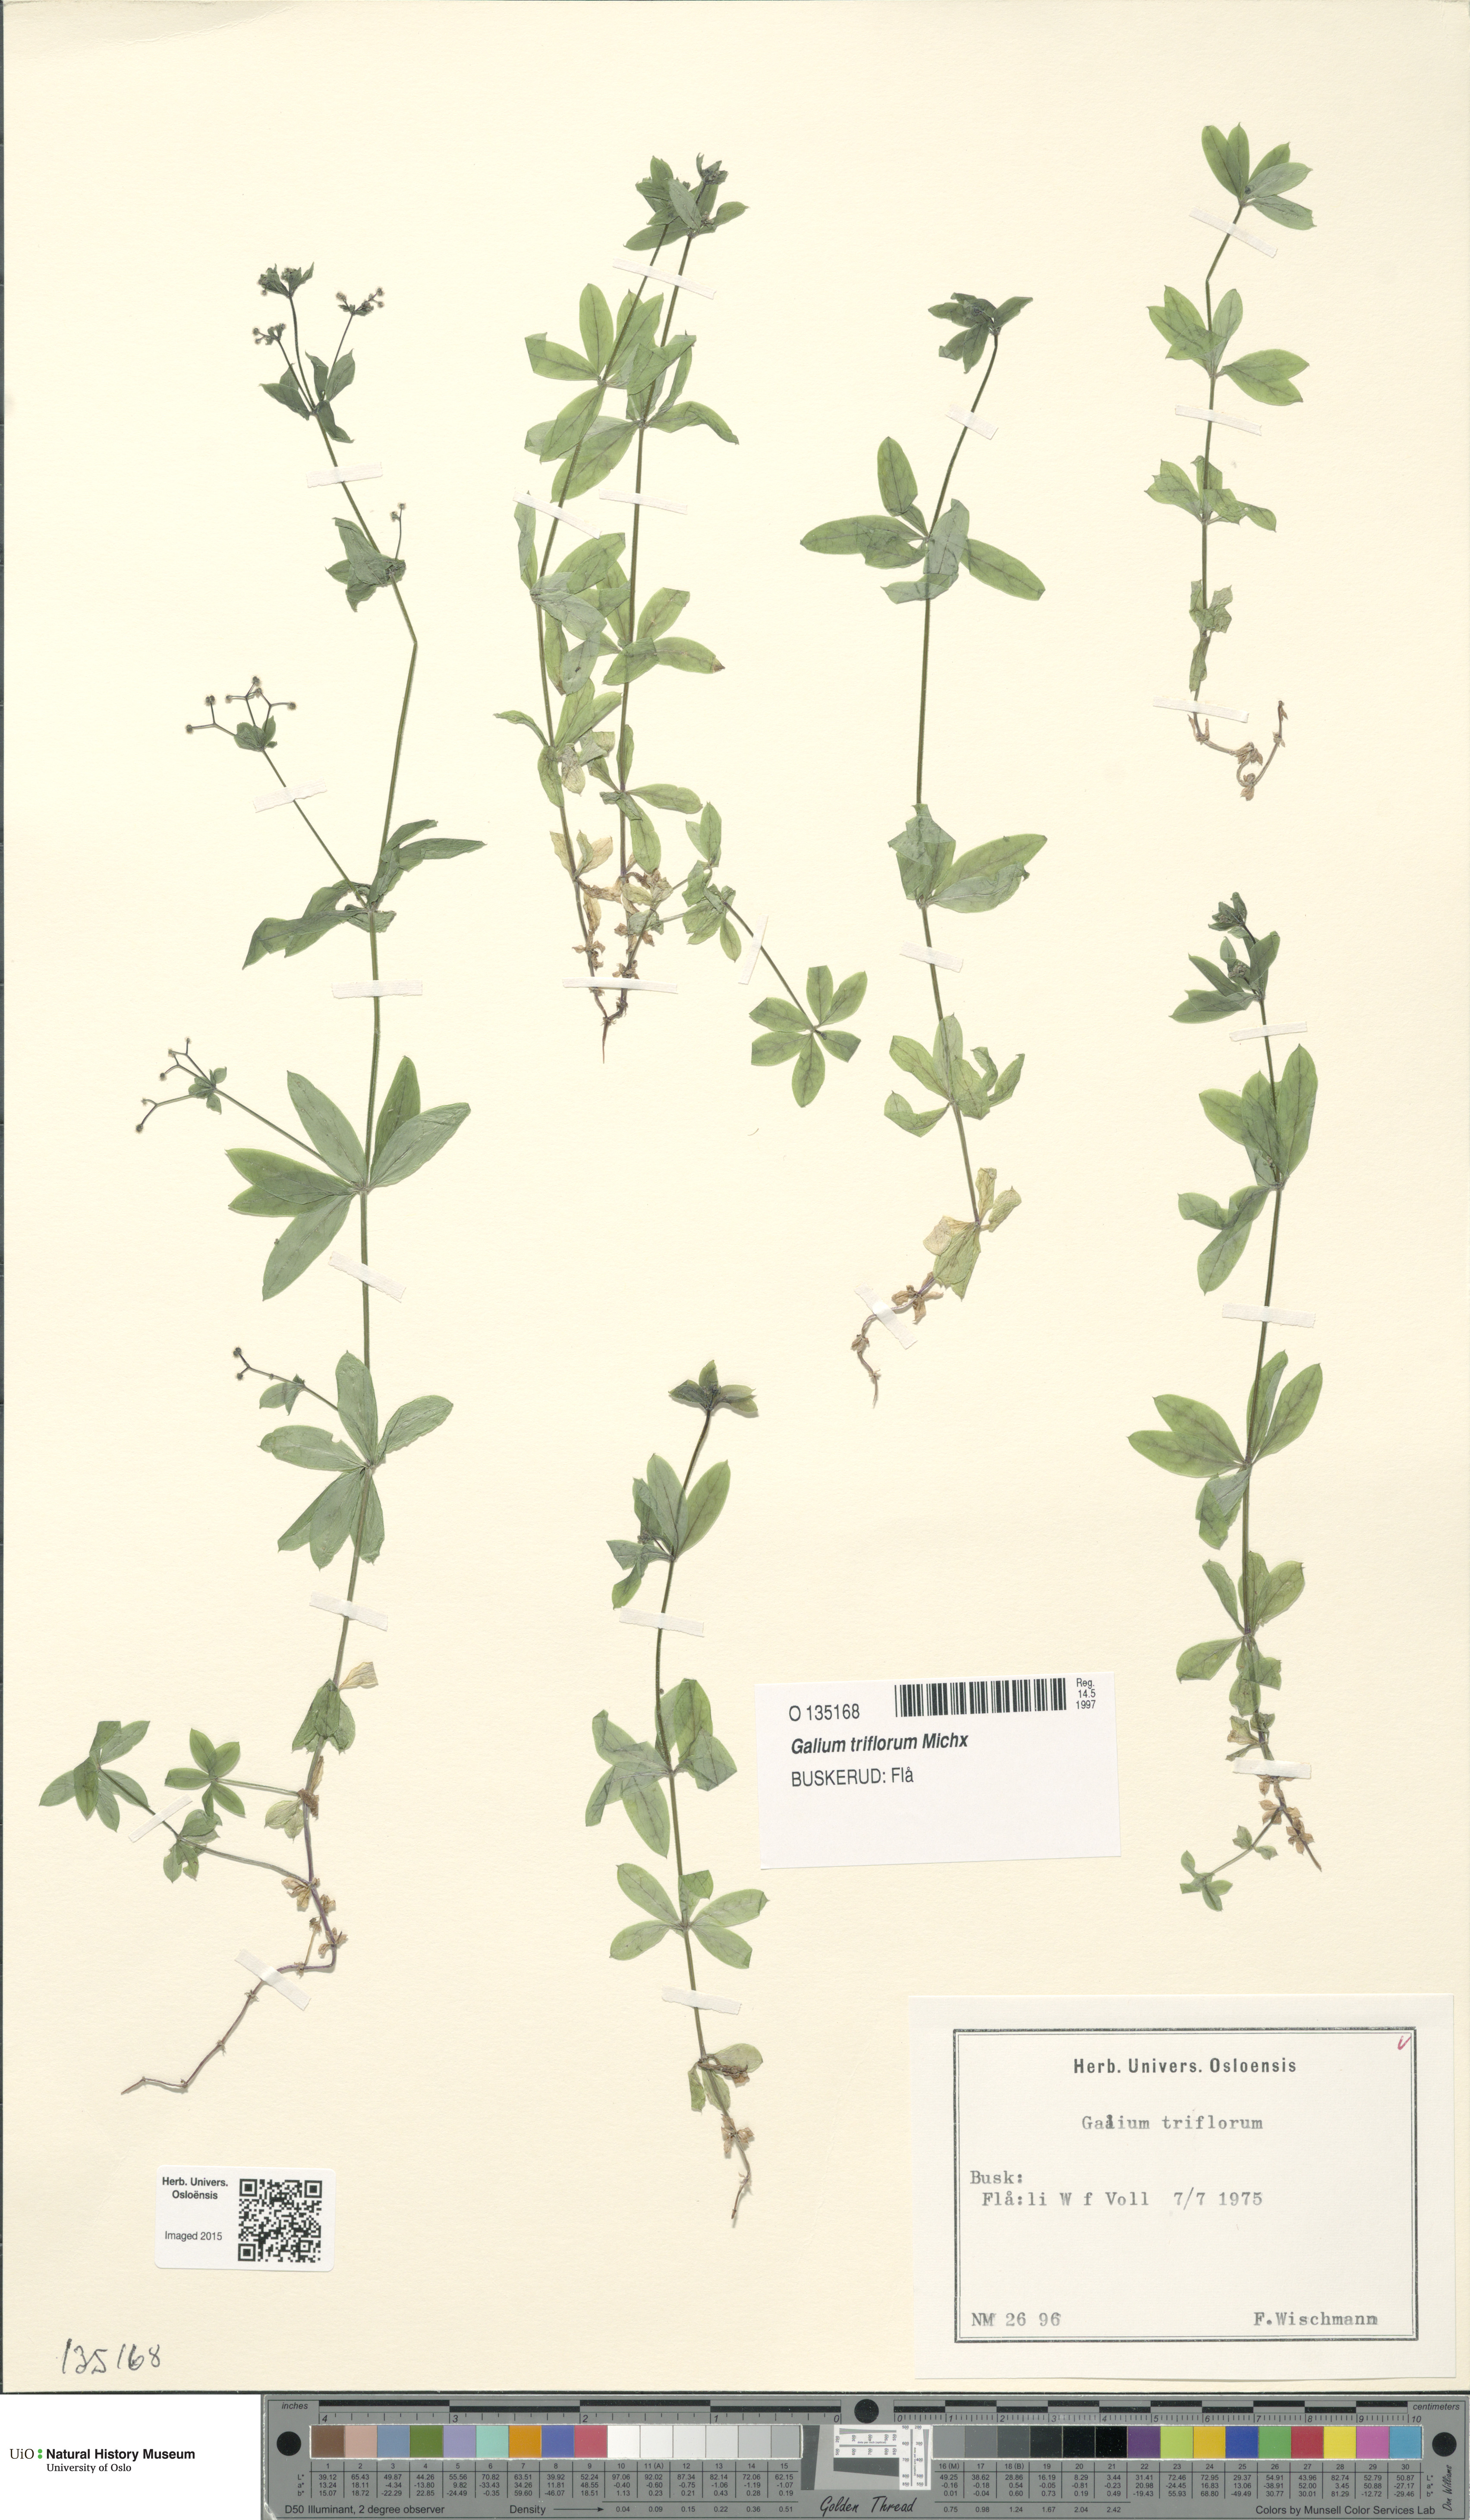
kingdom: Plantae
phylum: Tracheophyta
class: Magnoliopsida
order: Gentianales
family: Rubiaceae
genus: Galium
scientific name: Galium triflorum
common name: Fragrant bedstraw
